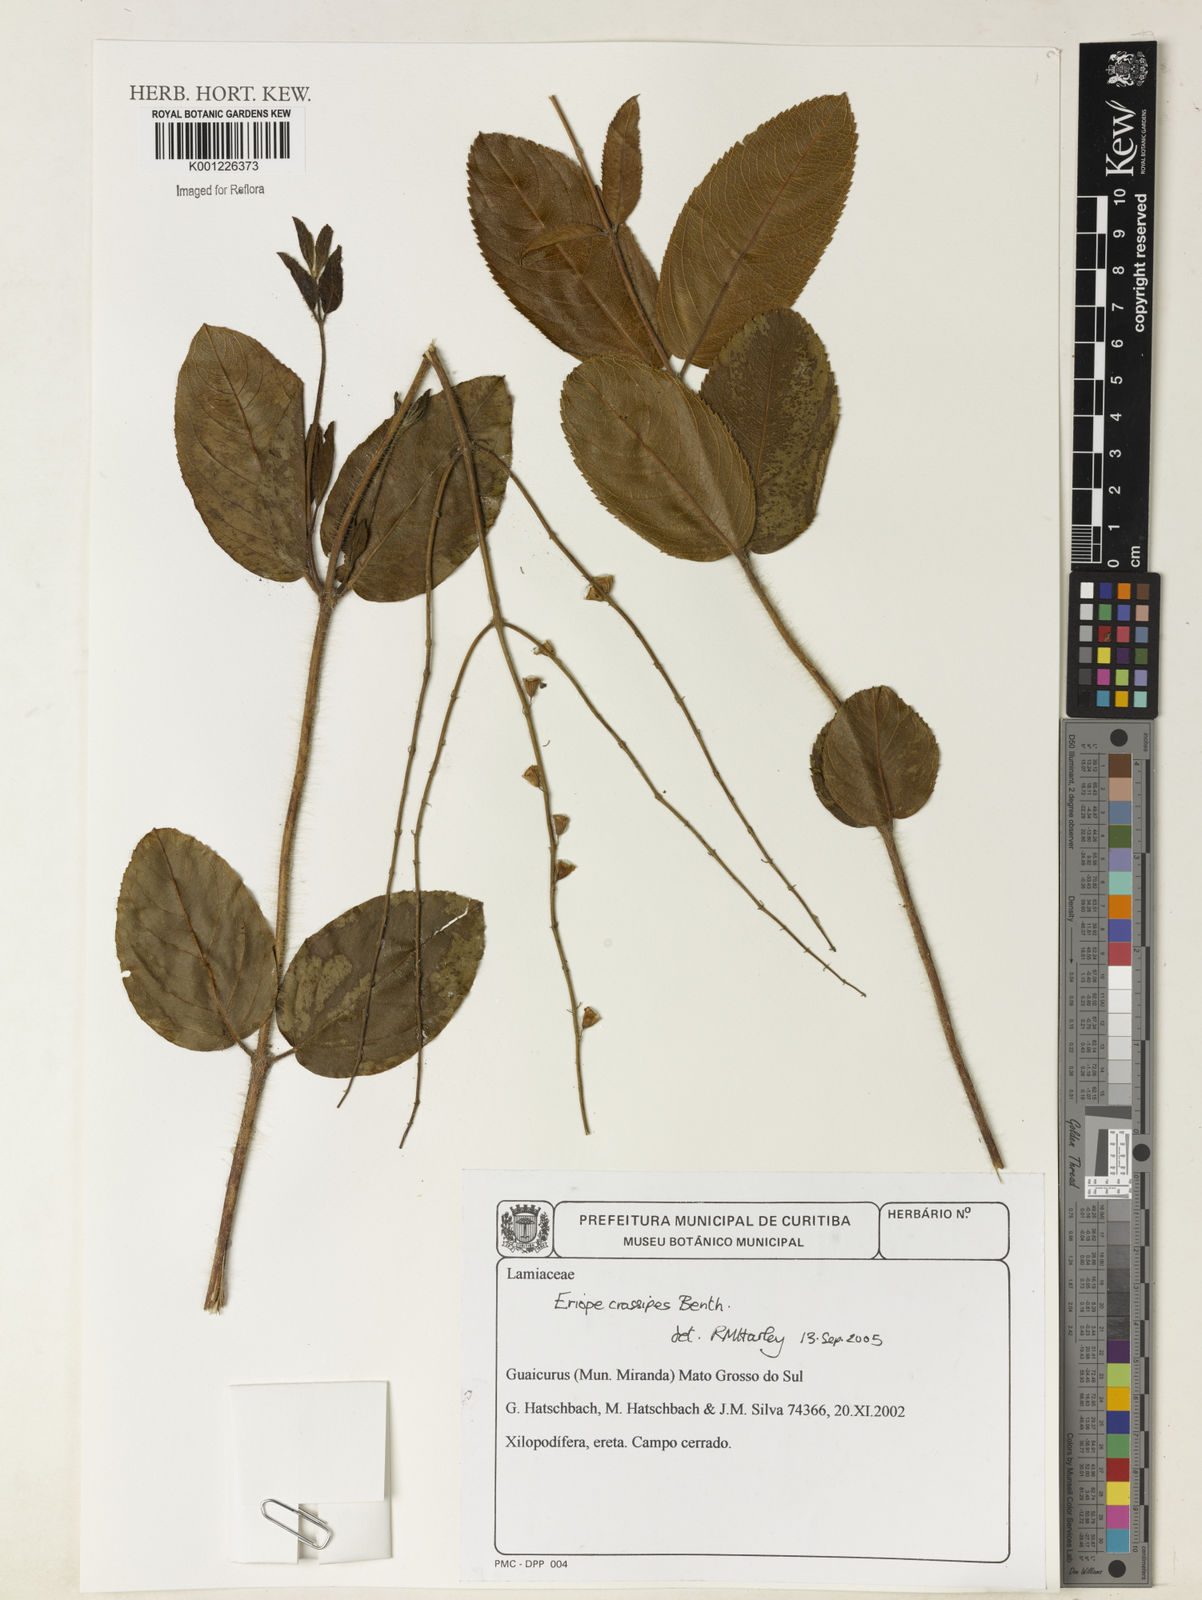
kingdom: Plantae
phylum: Tracheophyta
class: Magnoliopsida
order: Lamiales
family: Lamiaceae
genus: Eriope
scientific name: Eriope crassipes
